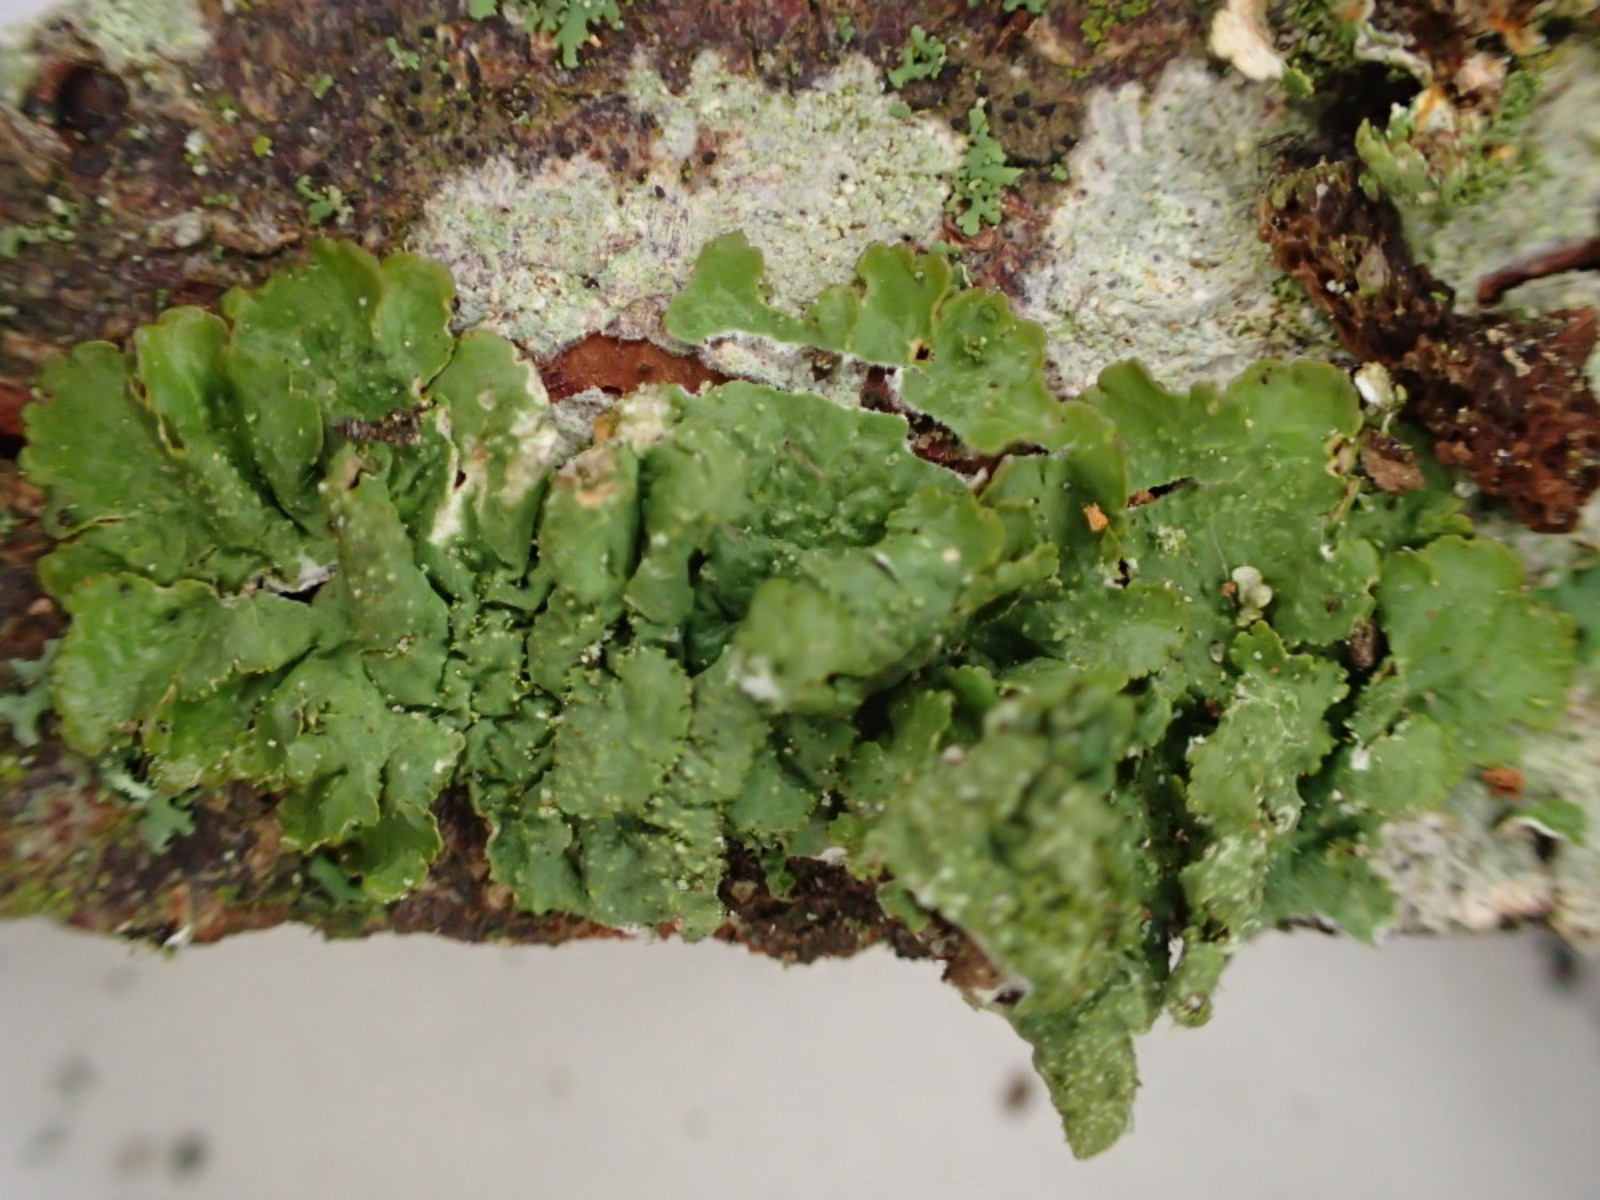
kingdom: Fungi
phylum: Ascomycota
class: Lecanoromycetes
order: Lecanorales
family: Parmeliaceae
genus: Melanelixia
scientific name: Melanelixia glabratula
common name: glinsende skållav
